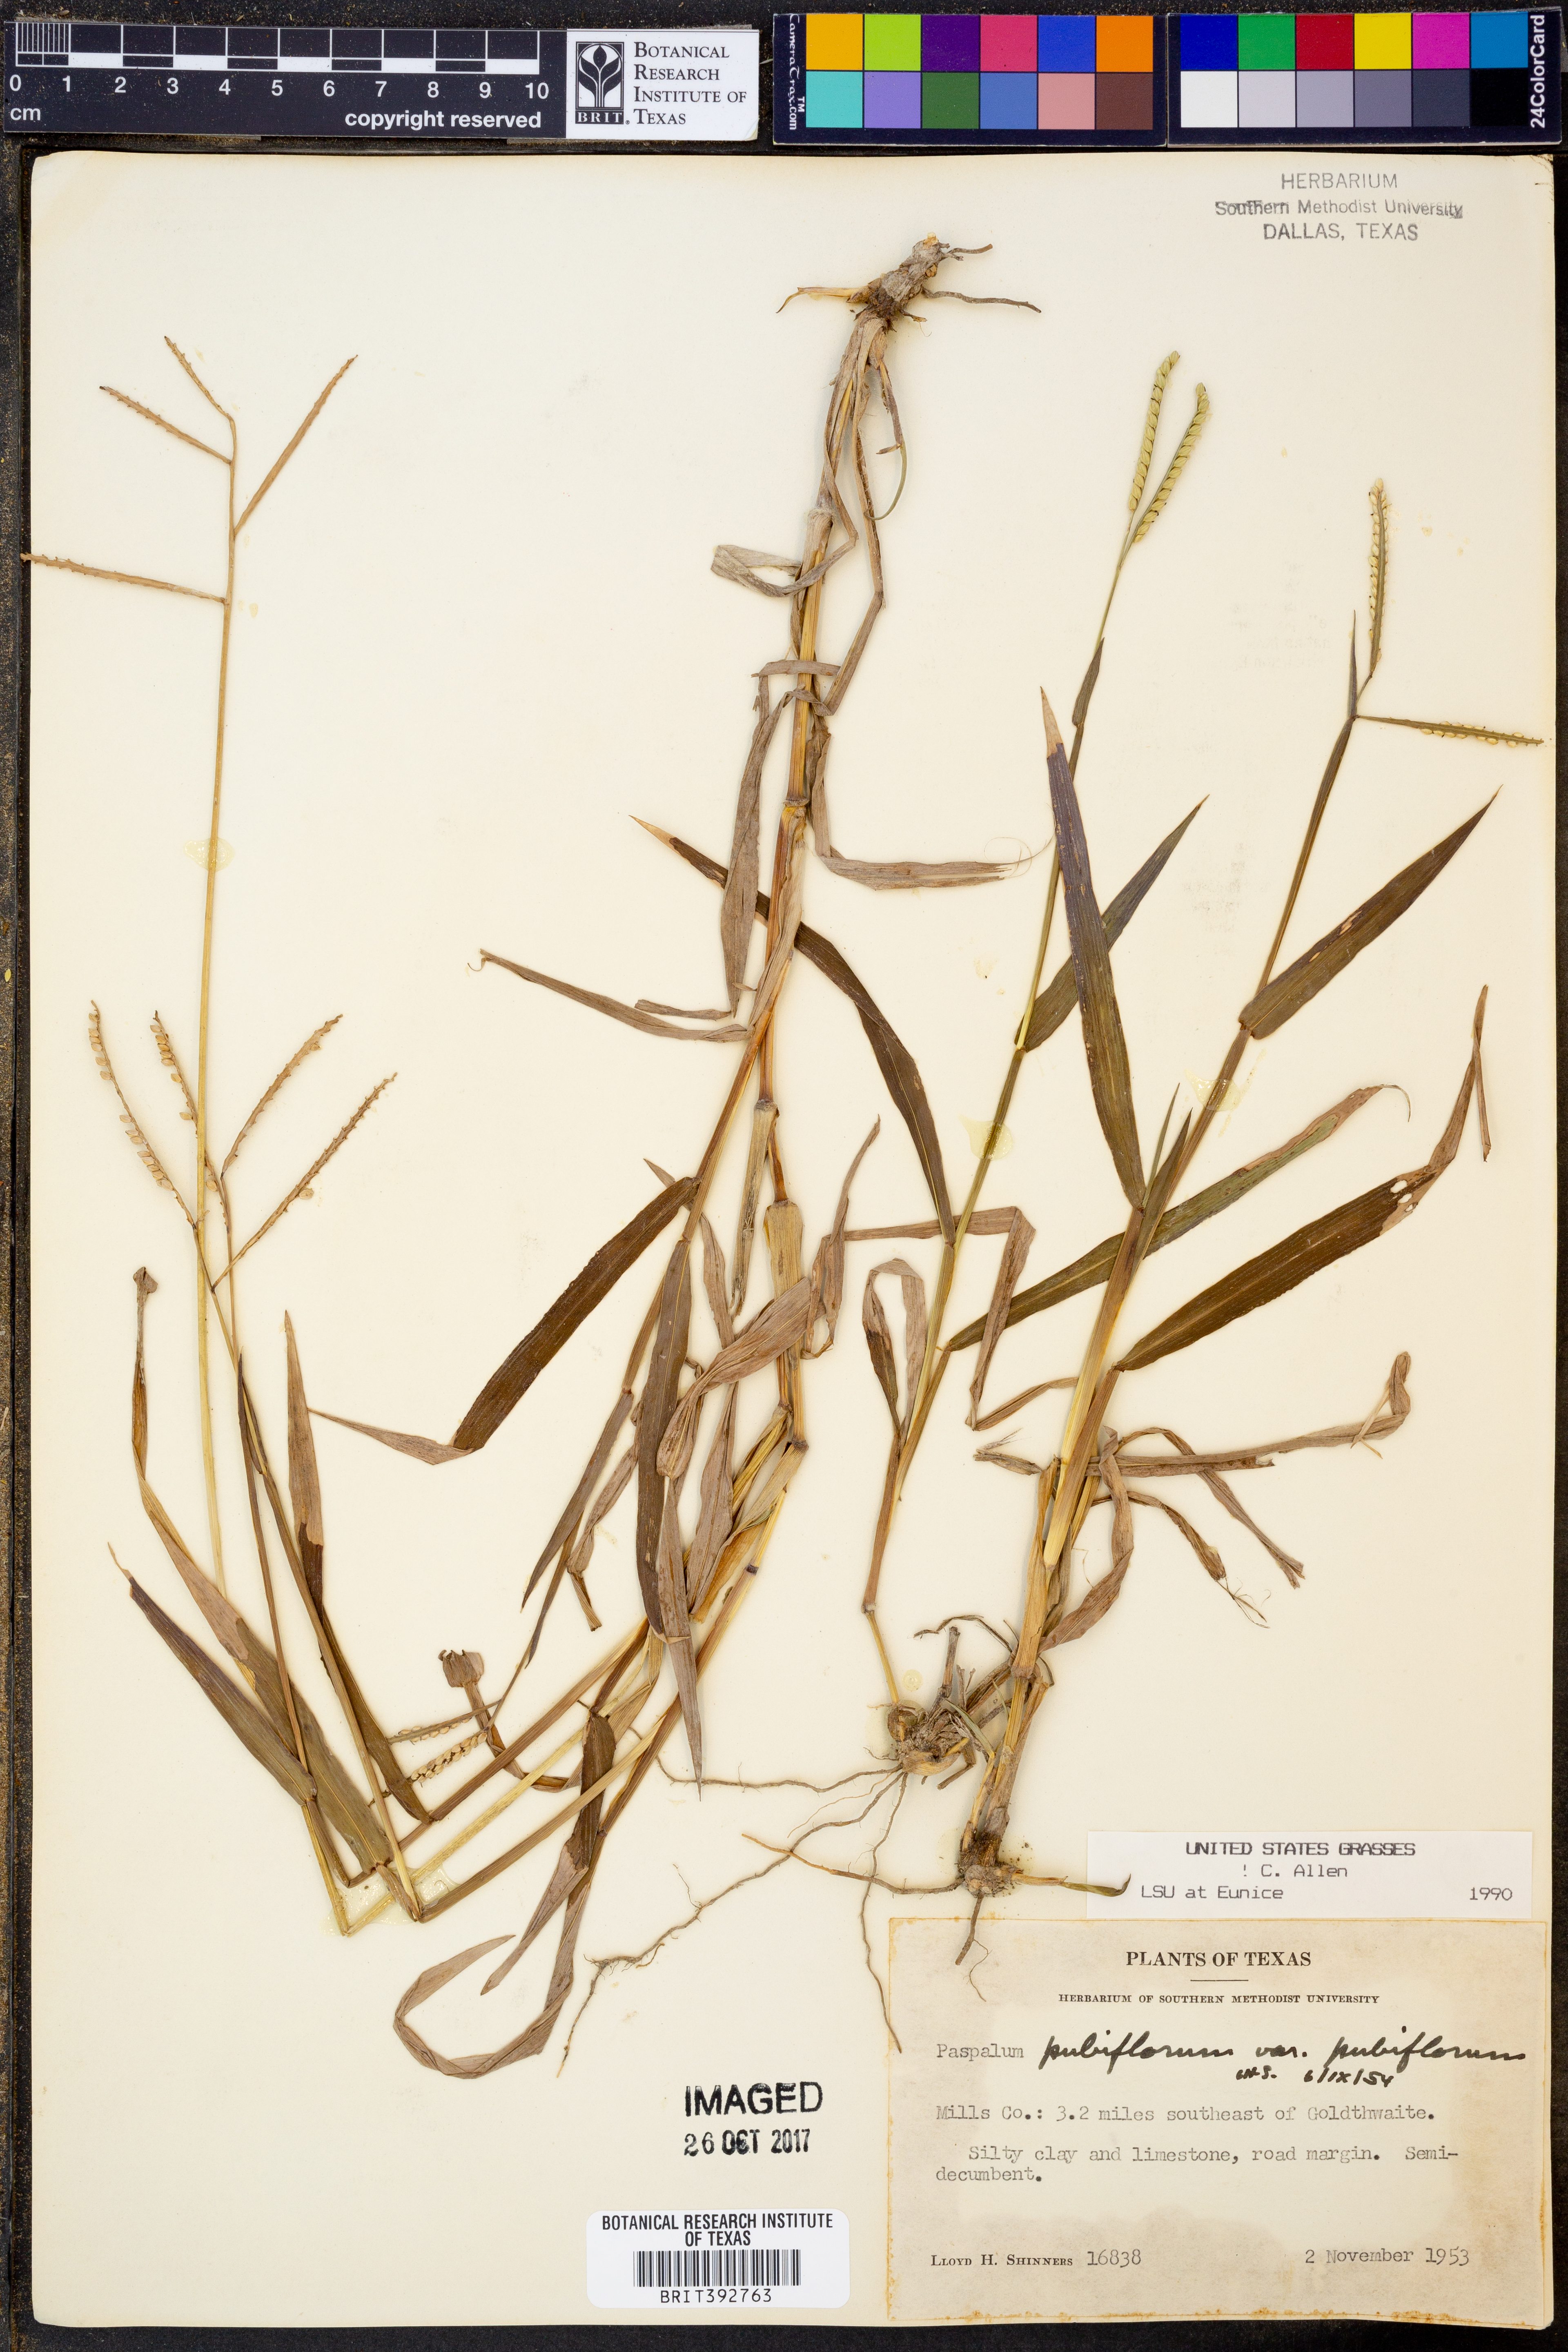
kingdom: Plantae
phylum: Tracheophyta
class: Liliopsida
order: Poales
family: Poaceae
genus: Paspalum
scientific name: Paspalum pubiflorum
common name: Hairy-seed paspalum
